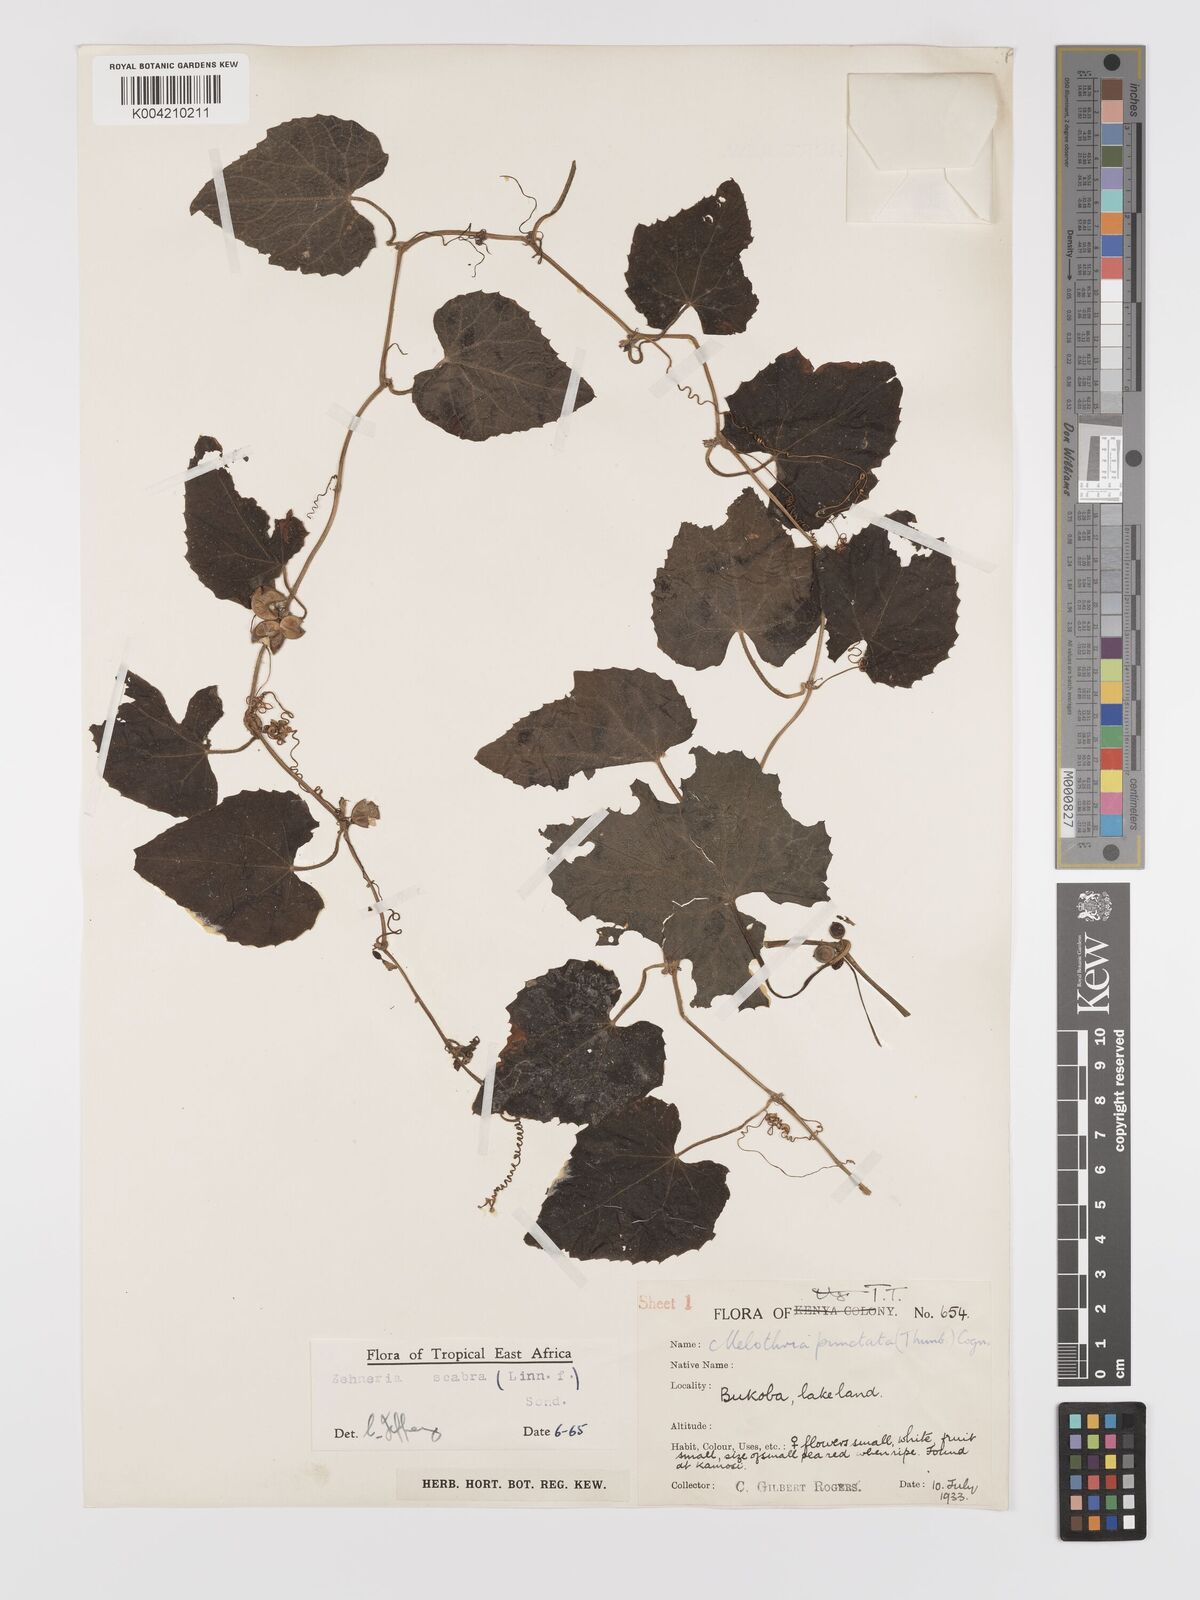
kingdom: Plantae
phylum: Tracheophyta
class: Magnoliopsida
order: Cucurbitales
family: Cucurbitaceae
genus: Zehneria
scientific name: Zehneria scabra
